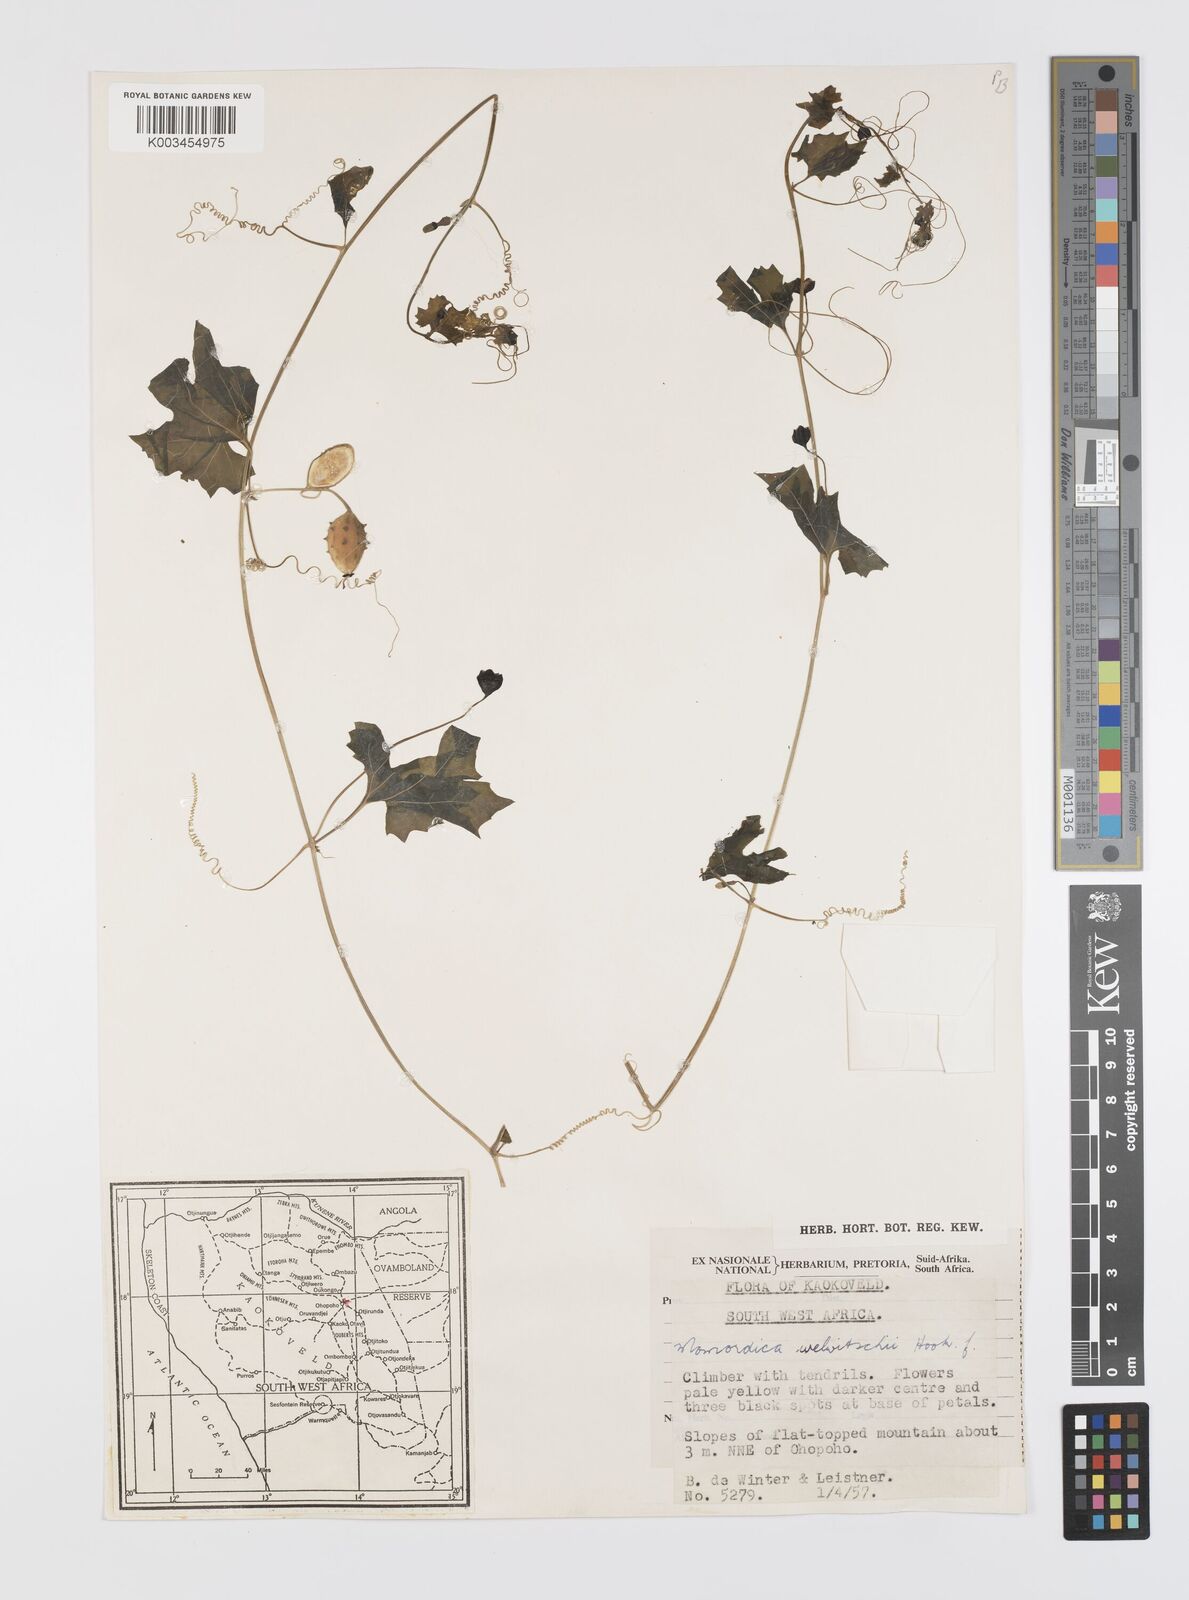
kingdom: Plantae
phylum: Tracheophyta
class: Magnoliopsida
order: Cucurbitales
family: Cucurbitaceae
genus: Momordica
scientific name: Momordica welwitschii
